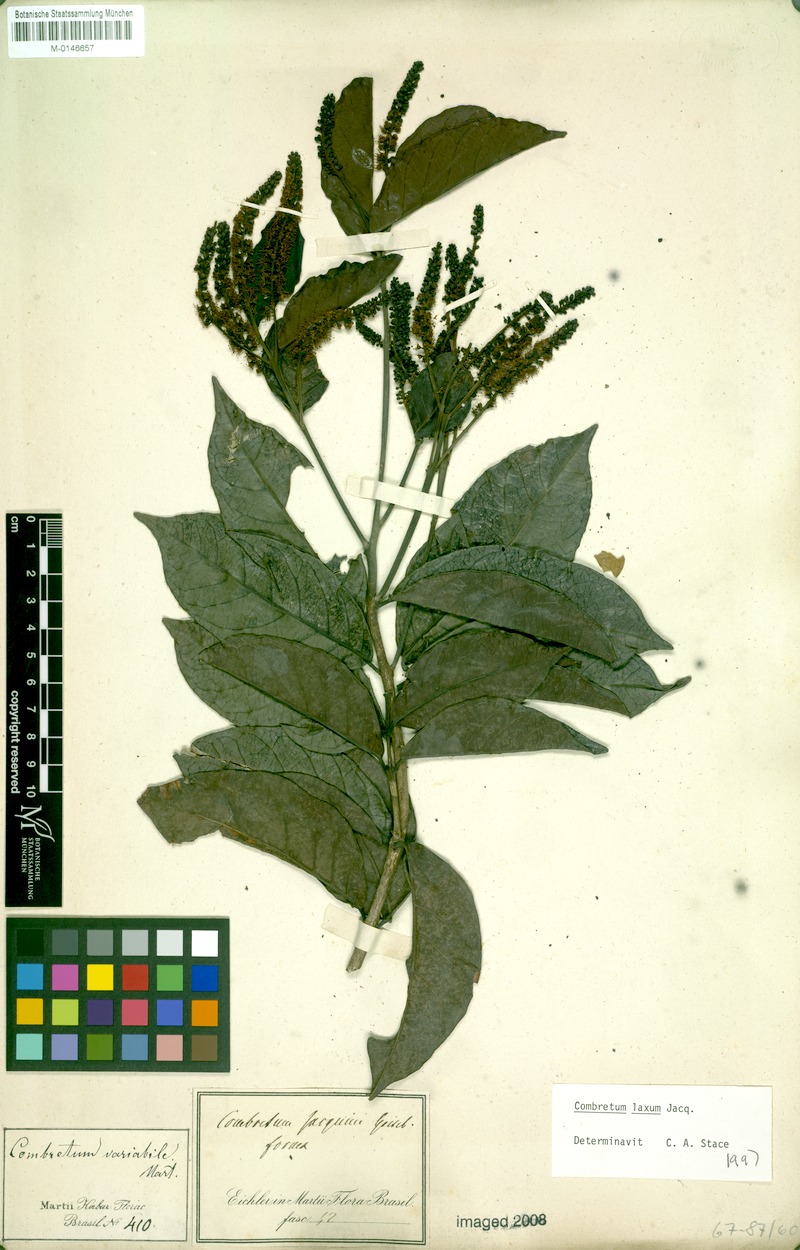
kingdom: Plantae
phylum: Tracheophyta
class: Magnoliopsida
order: Myrtales
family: Combretaceae
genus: Combretum
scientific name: Combretum laxum
